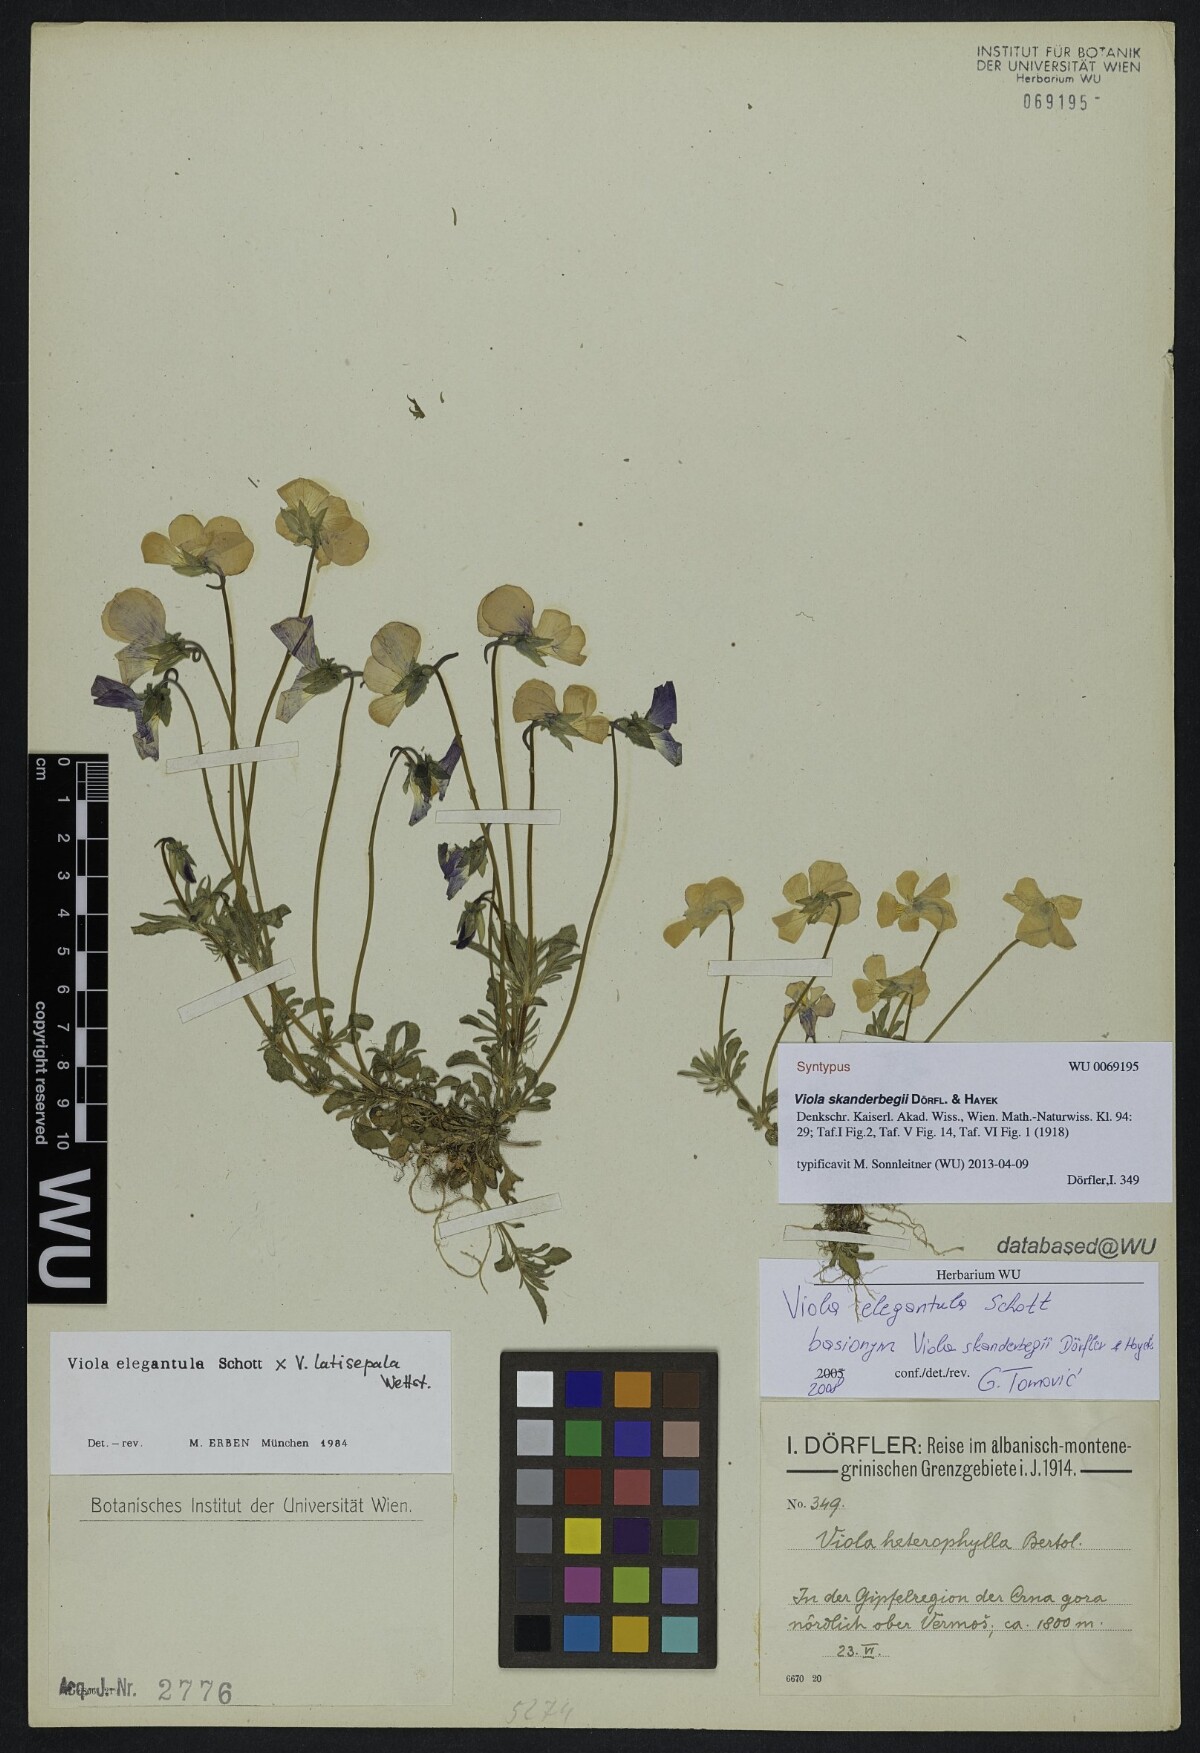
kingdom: Plantae
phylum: Tracheophyta
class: Magnoliopsida
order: Malpighiales
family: Violaceae
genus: Viola
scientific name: Viola skanderbegii
